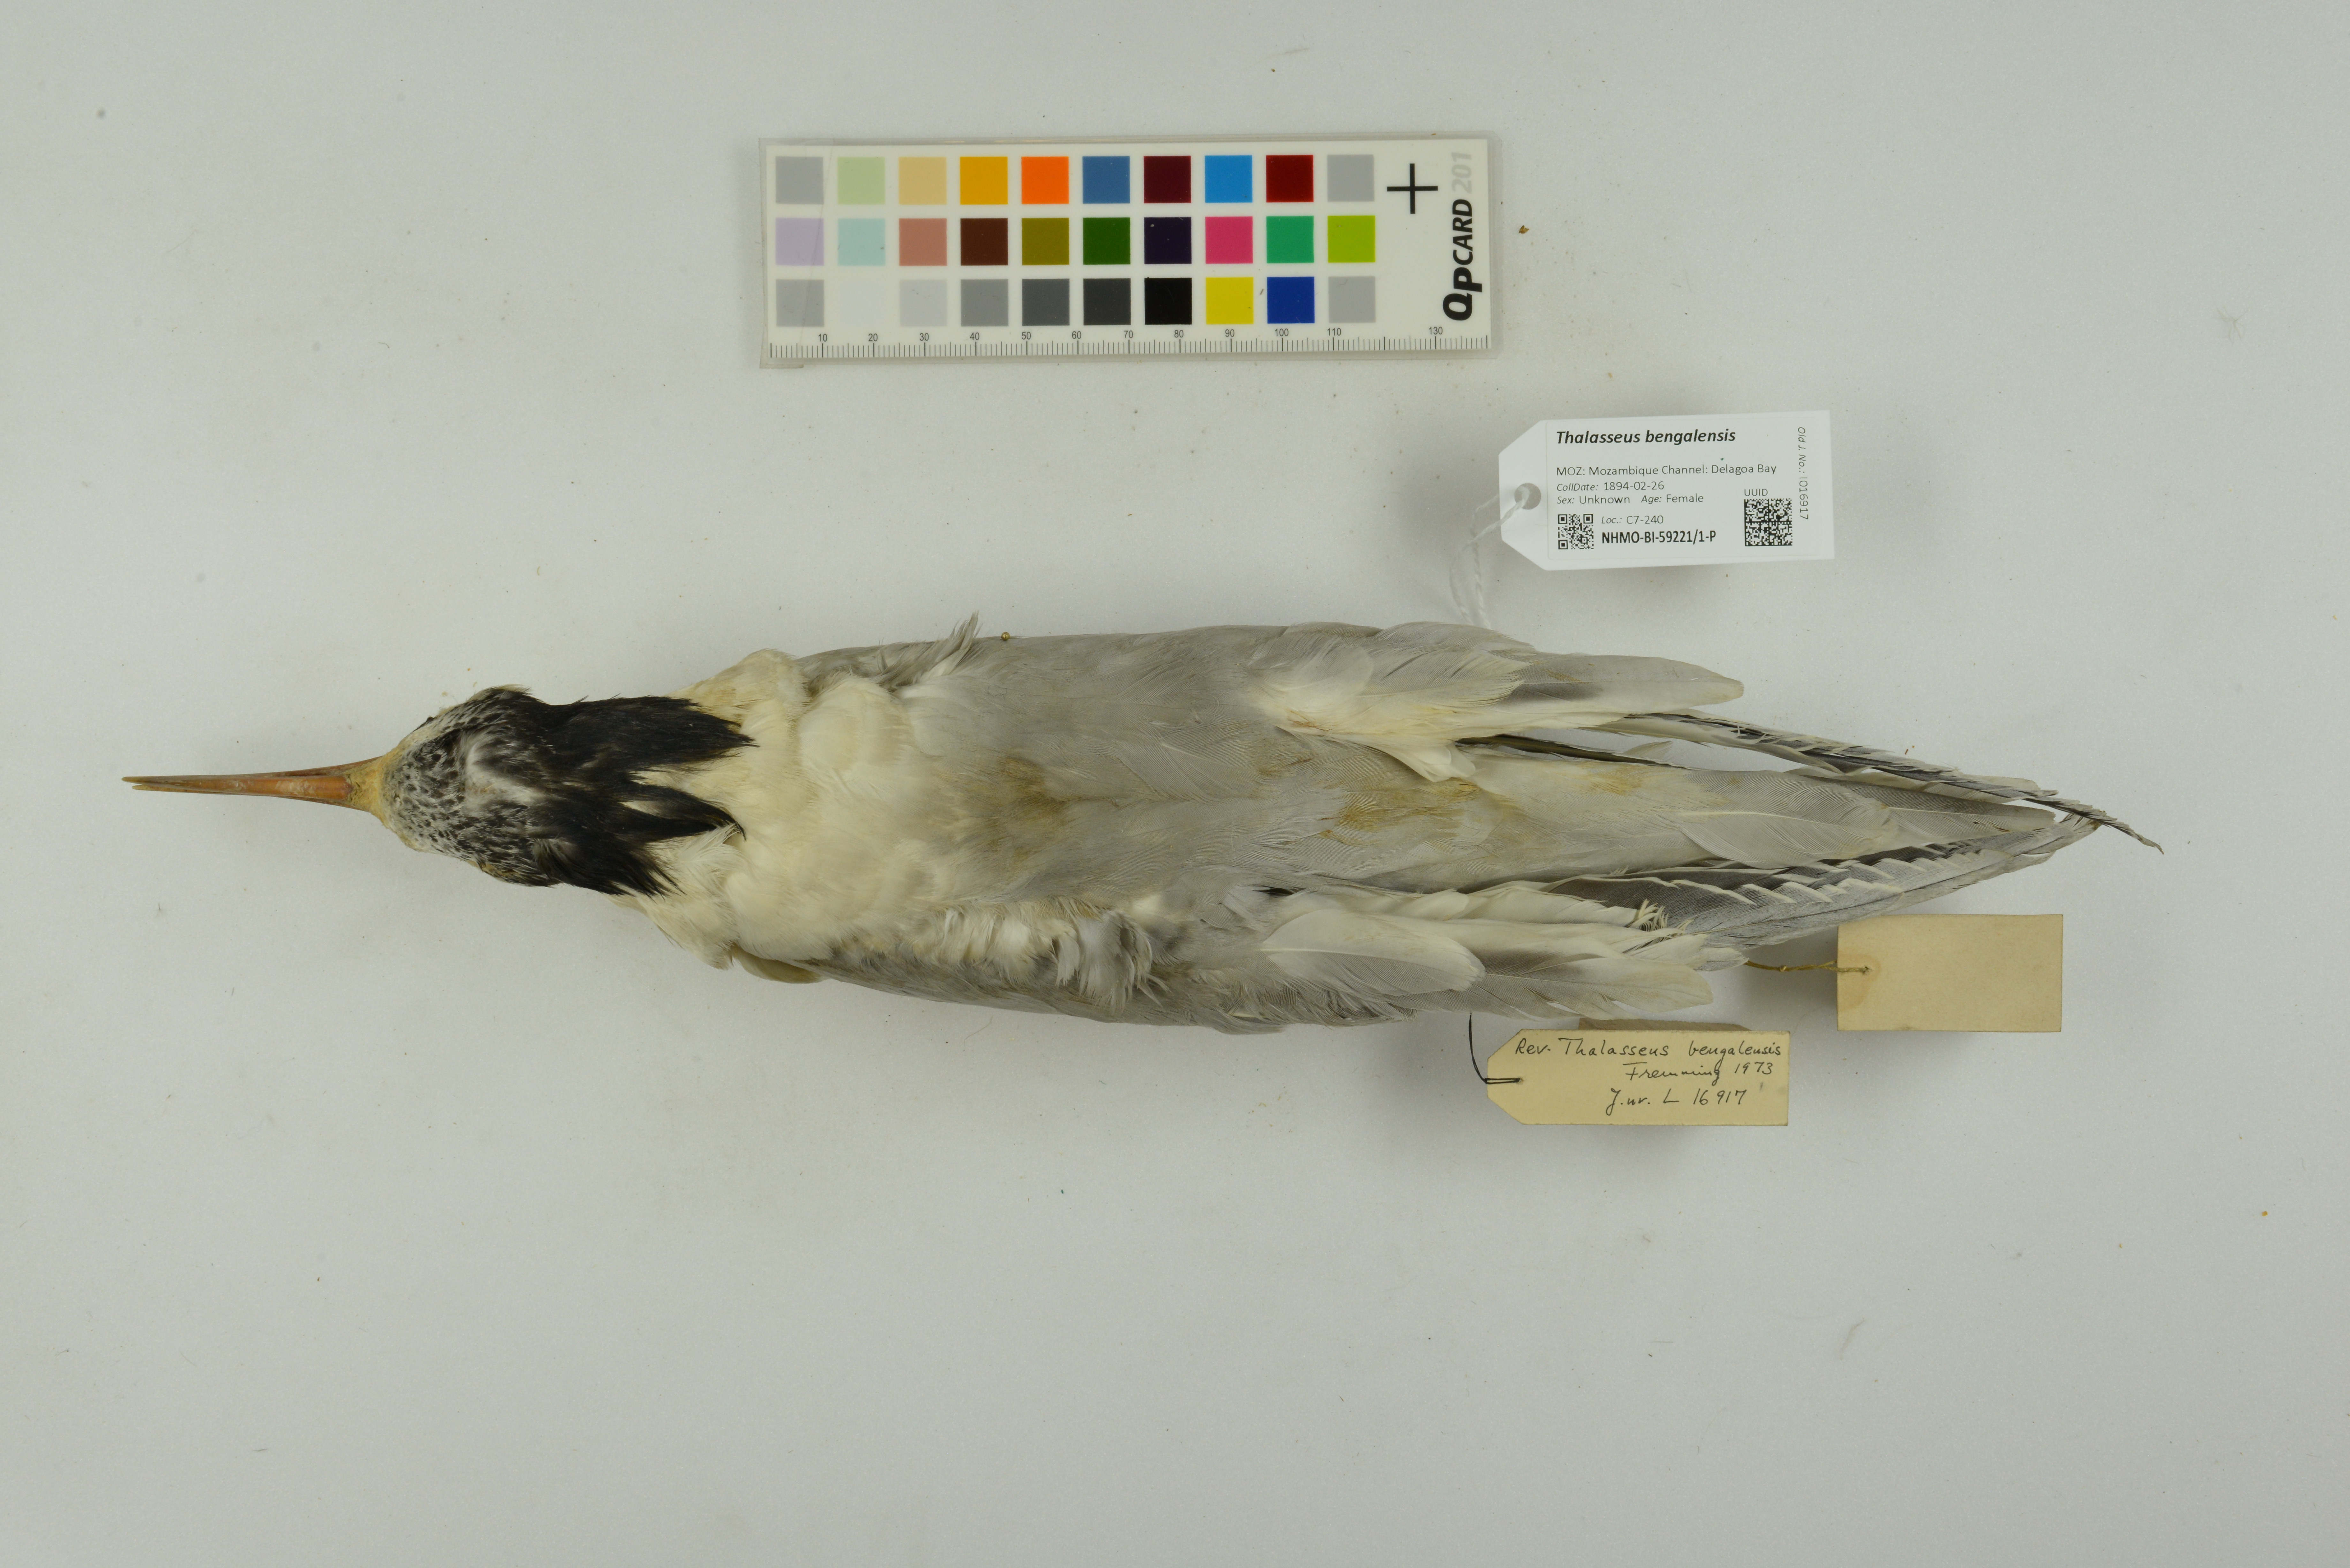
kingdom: Animalia
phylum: Chordata
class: Aves
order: Charadriiformes
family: Laridae
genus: Thalasseus
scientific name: Thalasseus bengalensis
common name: Lesser crested tern
